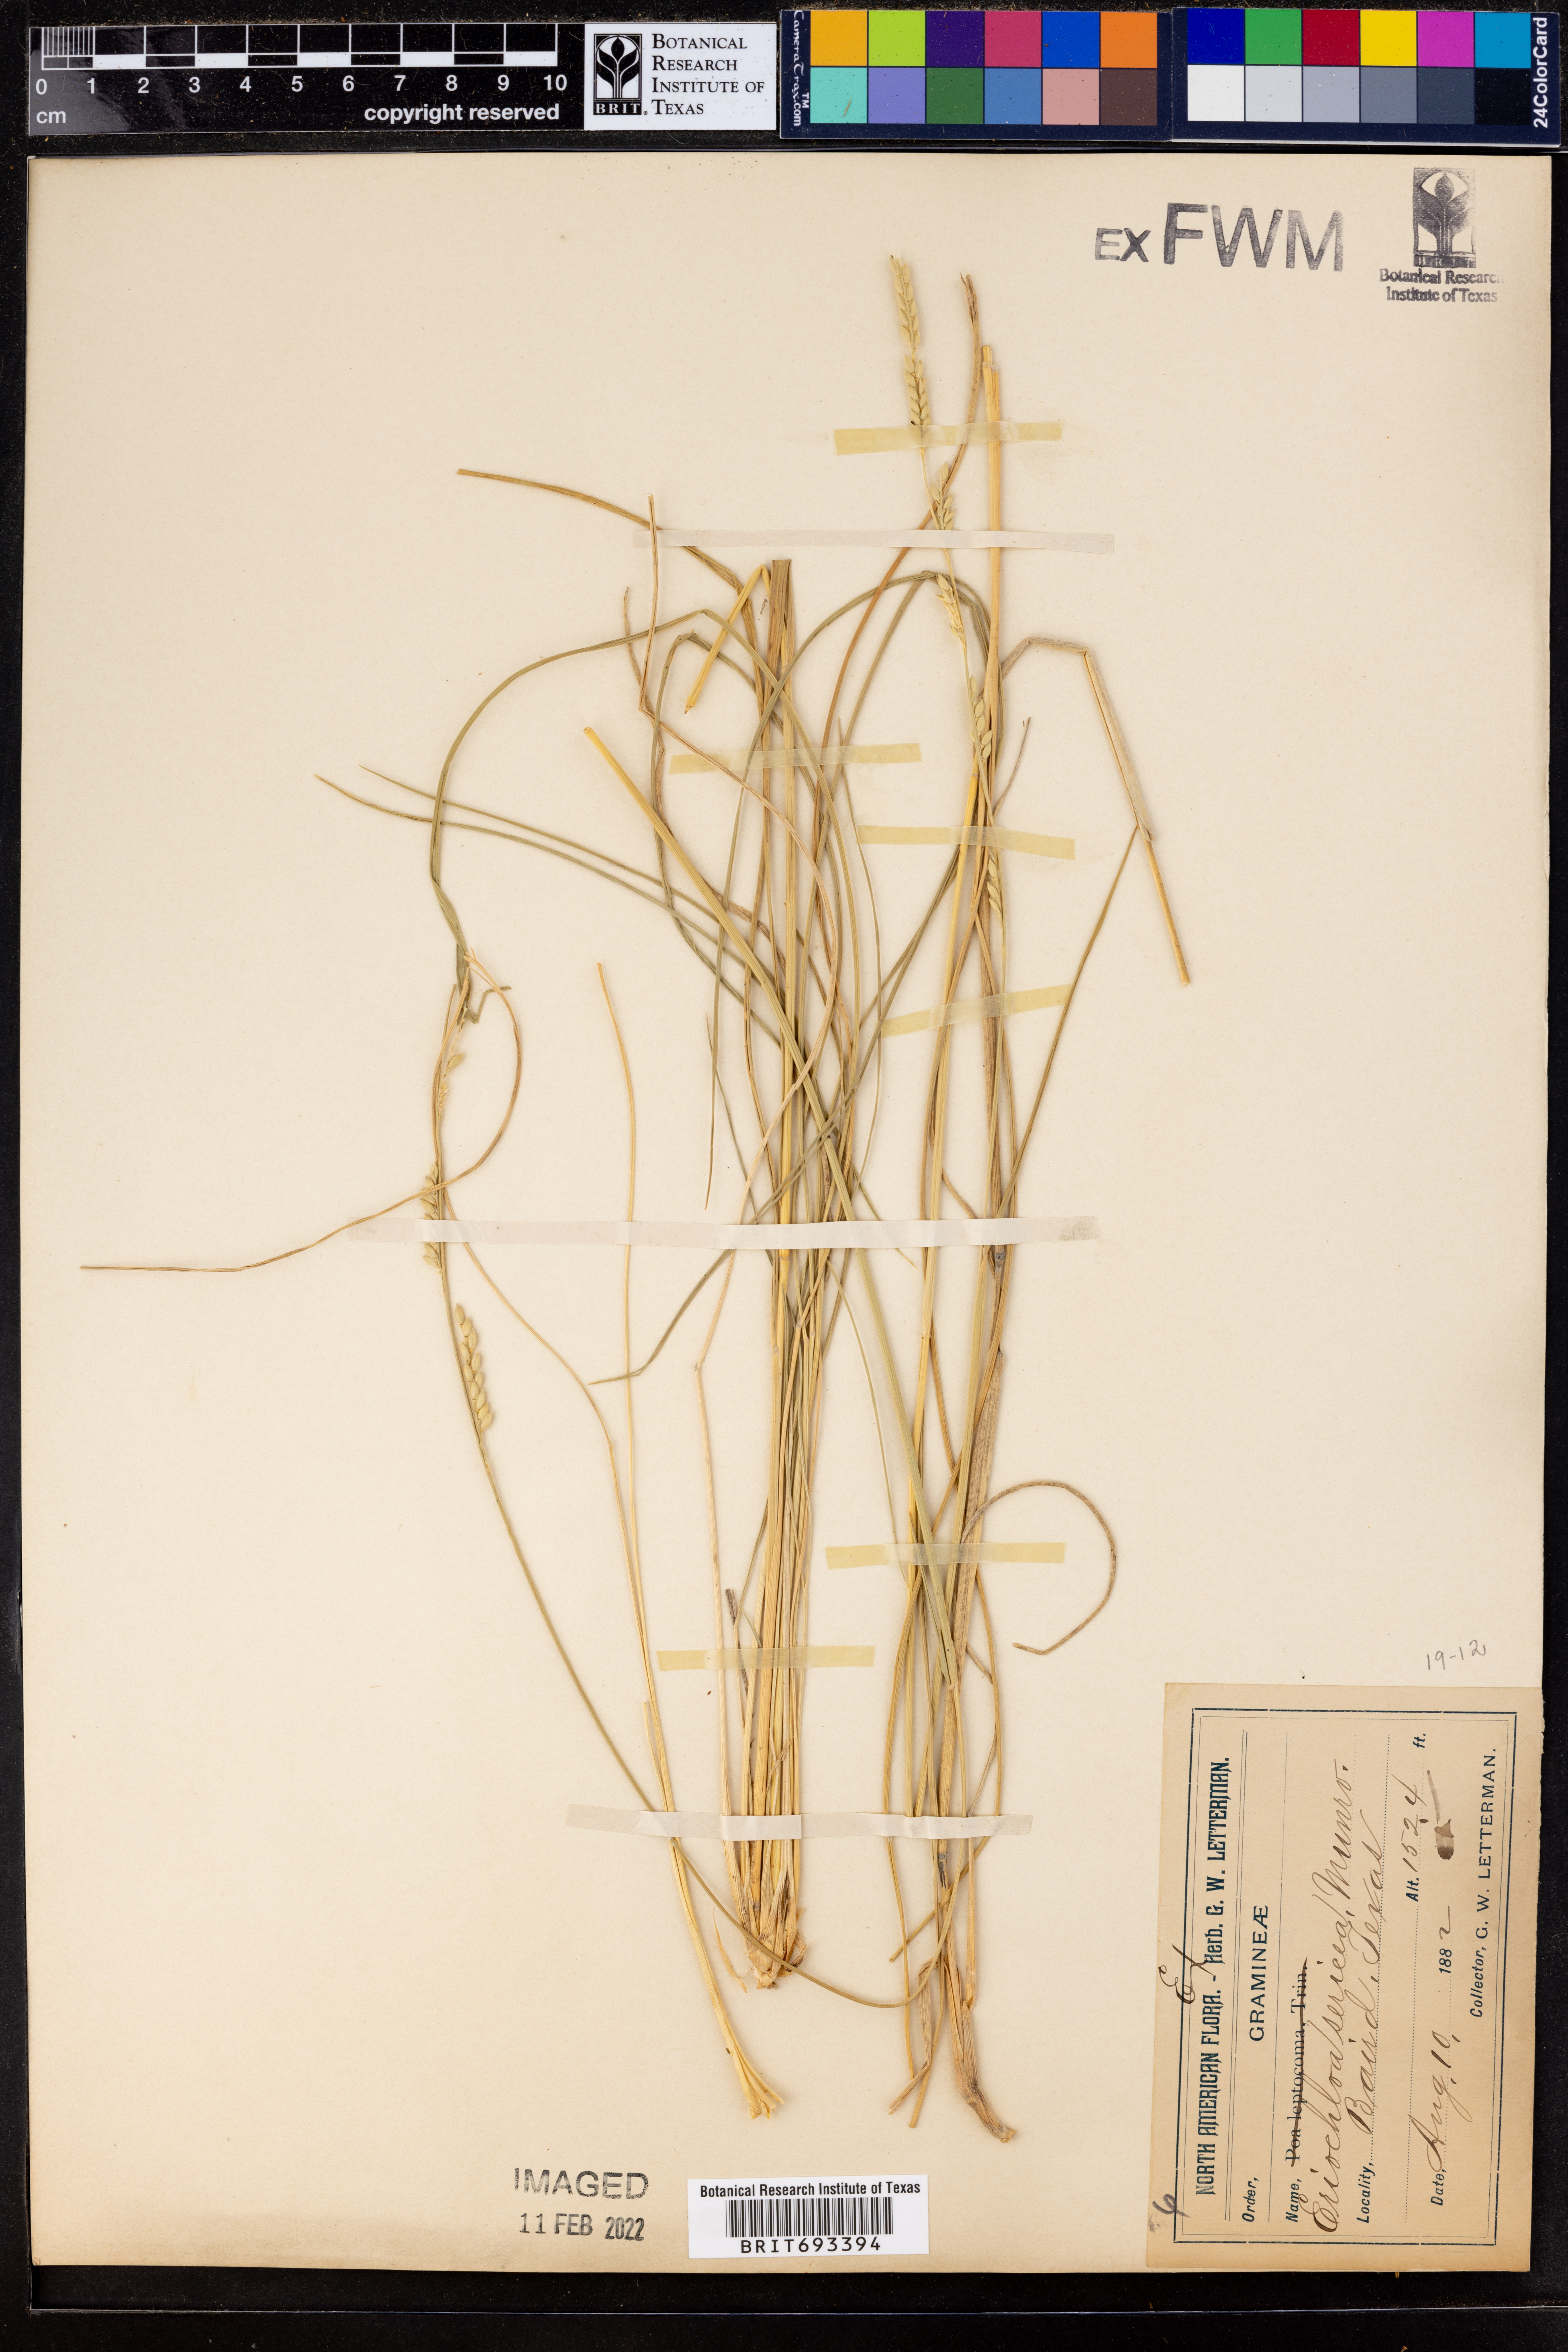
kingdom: Plantae
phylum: Tracheophyta
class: Liliopsida
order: Poales
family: Poaceae
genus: Eriochloa
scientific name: Eriochloa sericea
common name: Texas cup grass
